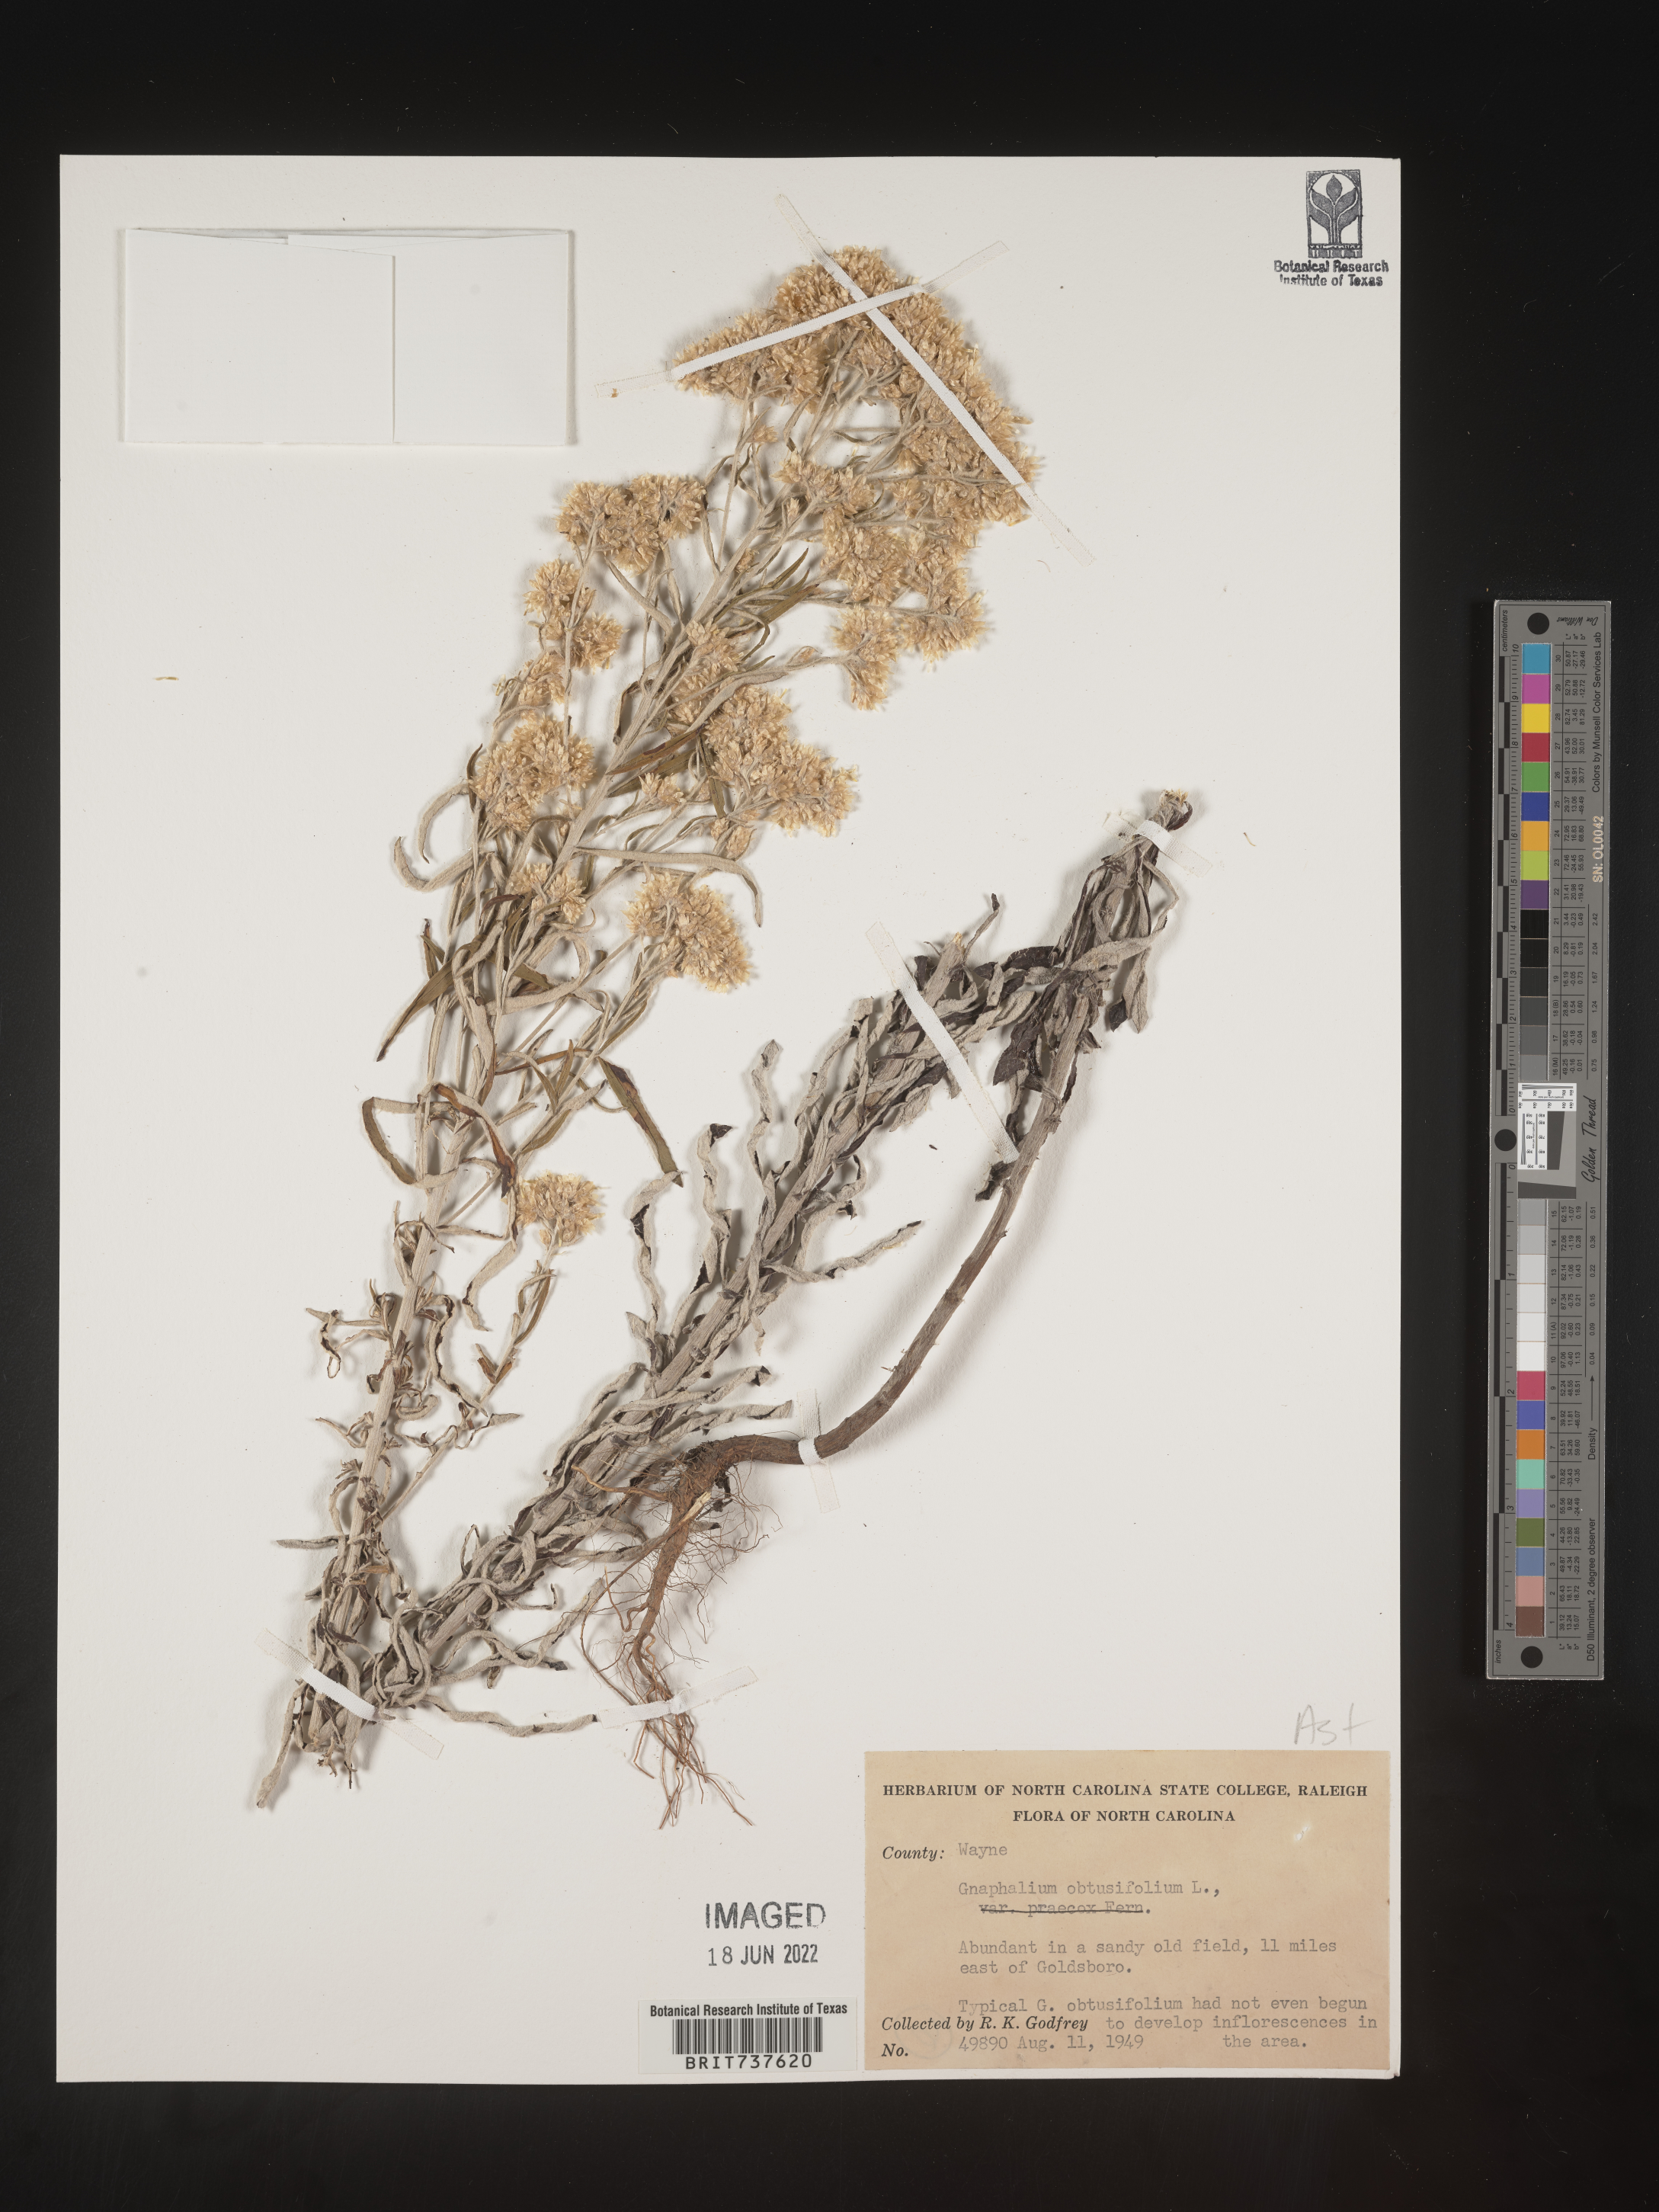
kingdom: Plantae
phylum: Tracheophyta
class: Magnoliopsida
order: Asterales
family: Asteraceae
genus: Pseudognaphalium
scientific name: Pseudognaphalium obtusifolium
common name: Eastern rabbit-tobacco
